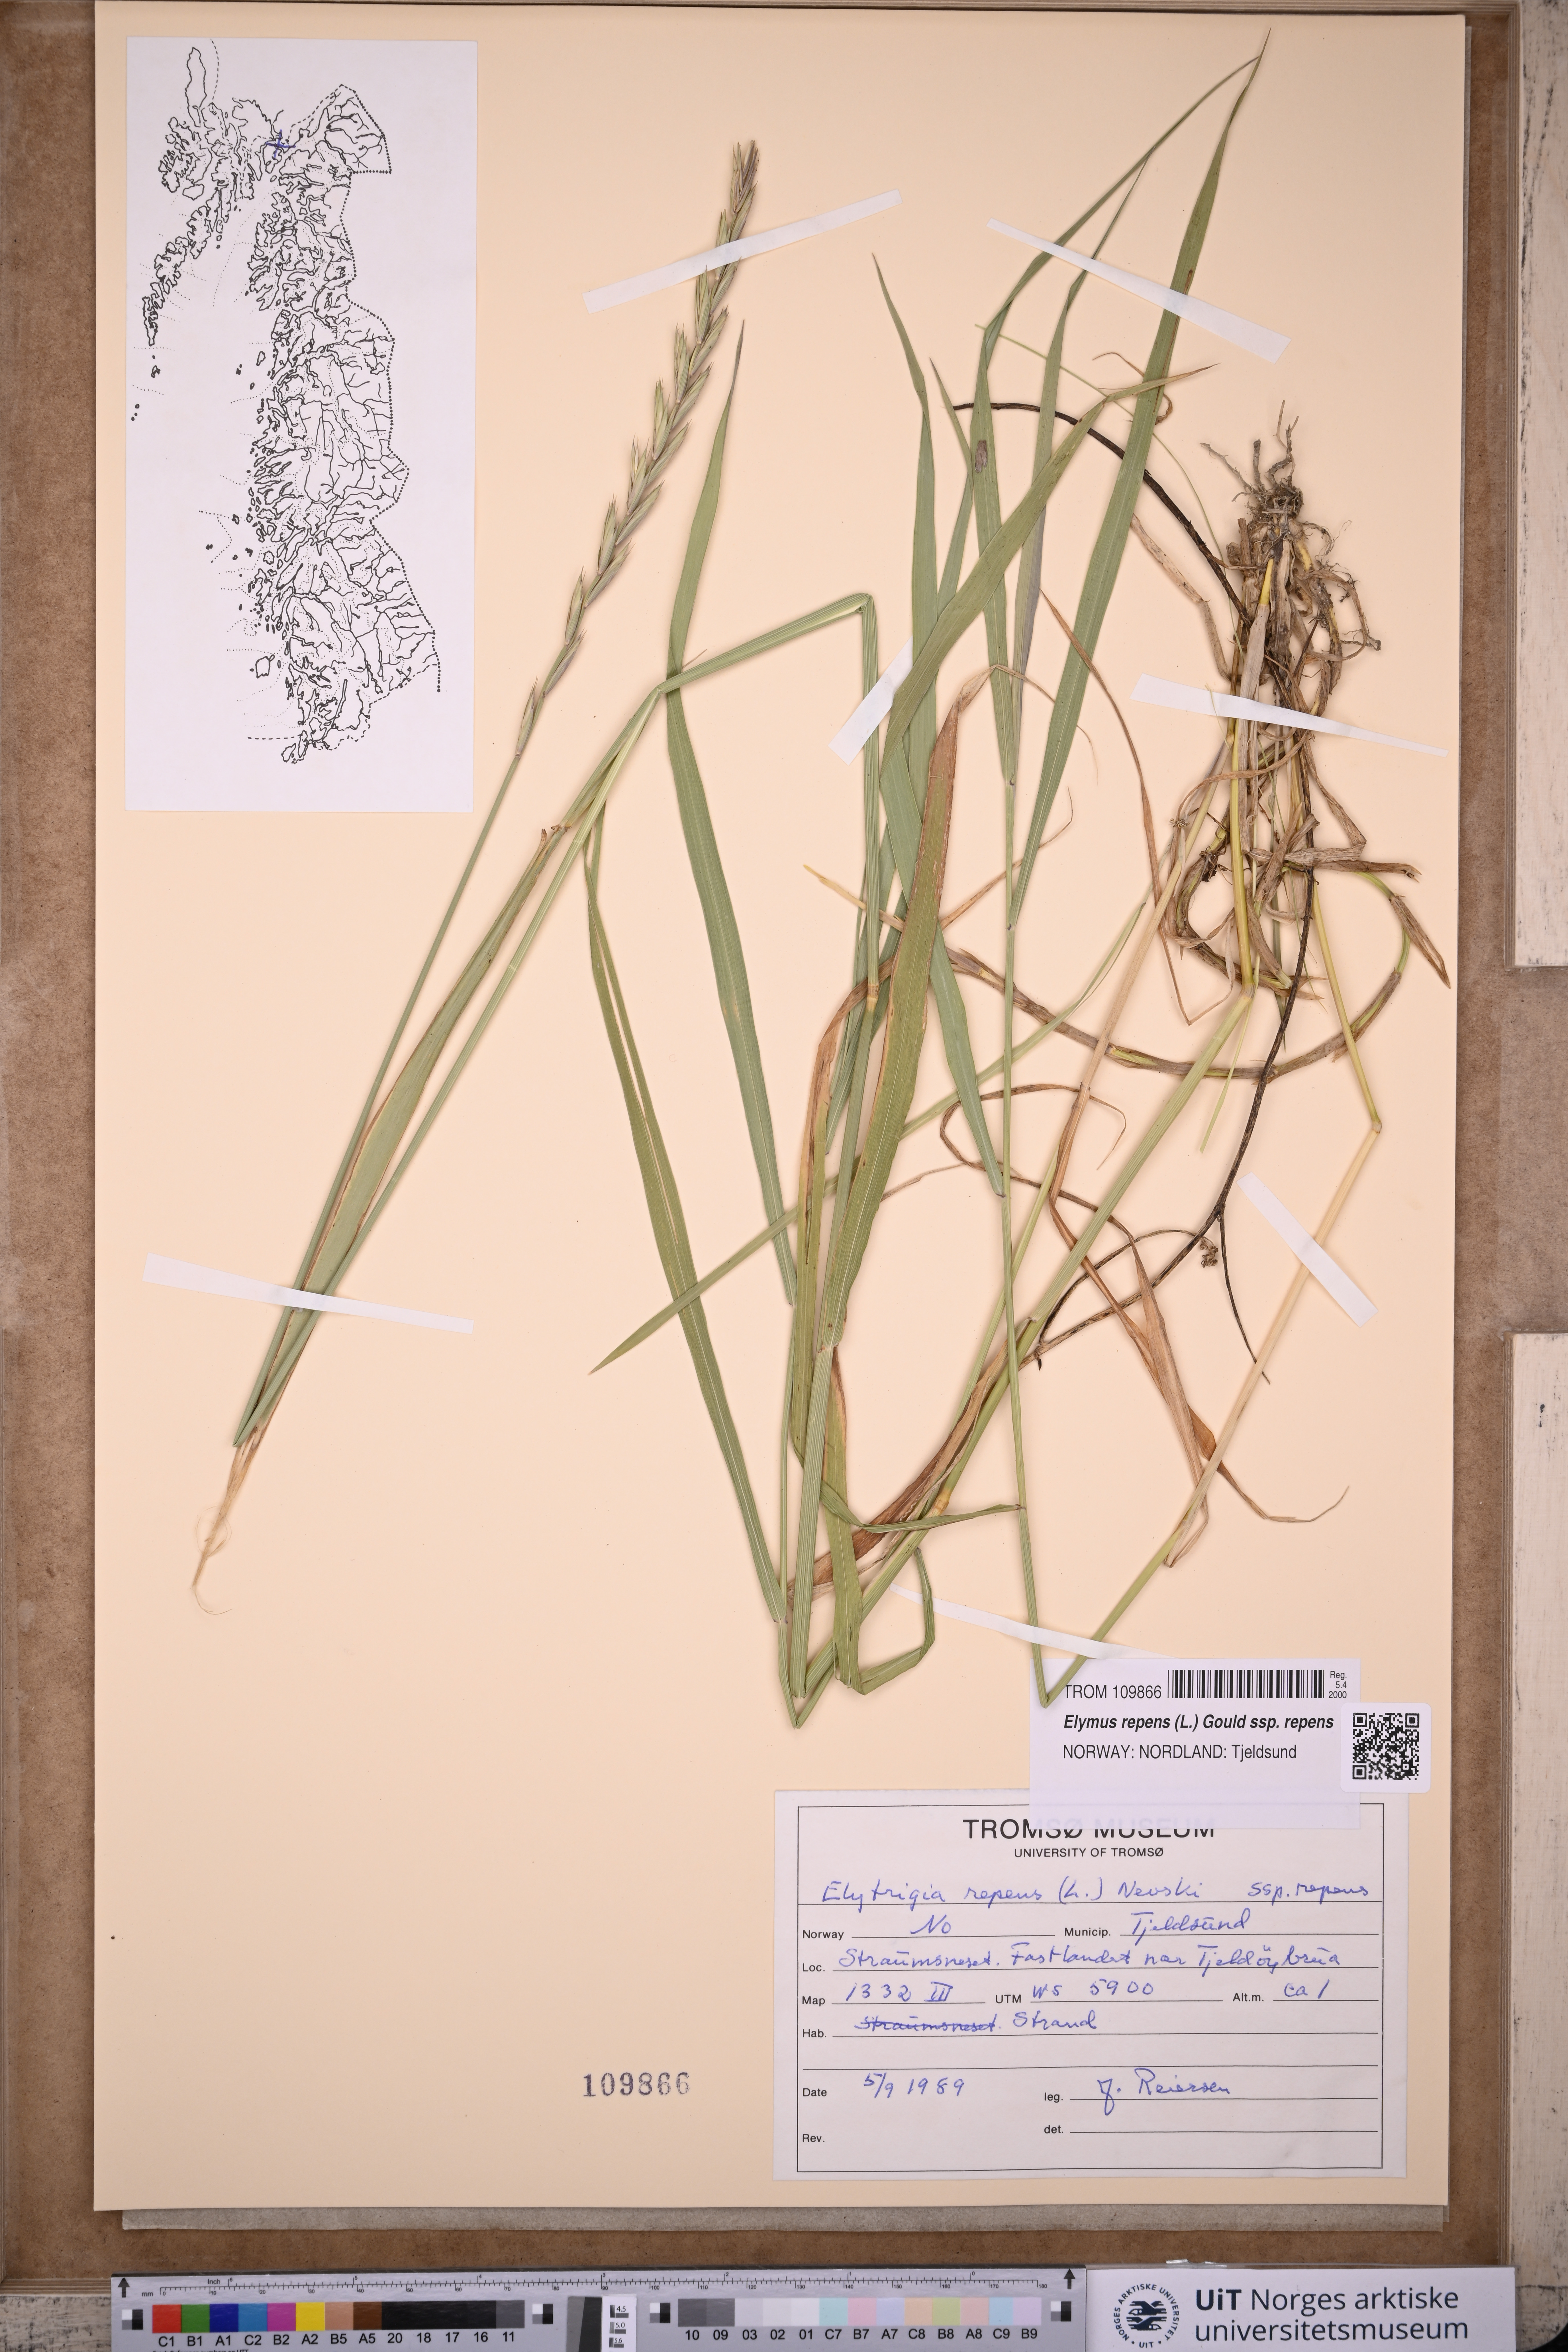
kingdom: Plantae
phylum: Tracheophyta
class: Liliopsida
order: Poales
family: Poaceae
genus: Elymus
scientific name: Elymus repens
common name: Quackgrass
